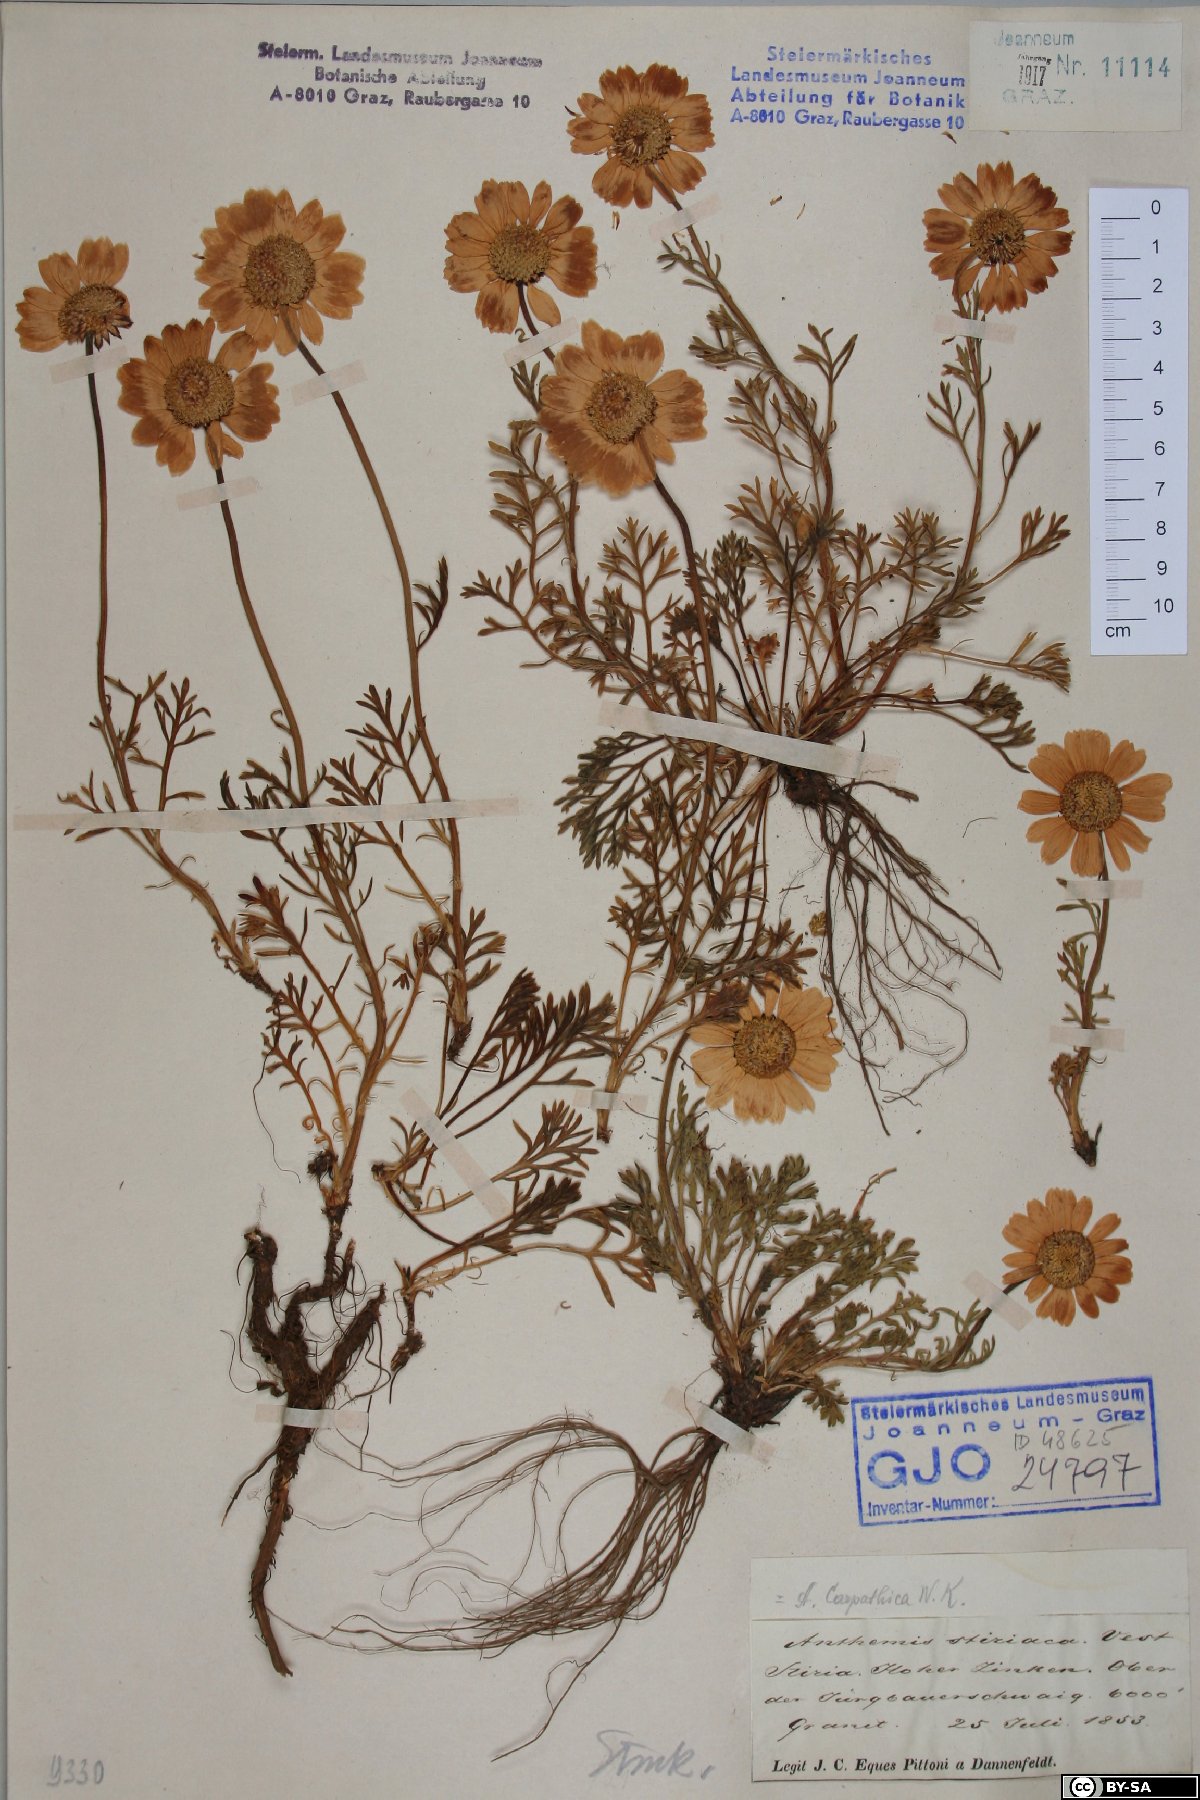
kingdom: Plantae
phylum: Tracheophyta
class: Magnoliopsida
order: Asterales
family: Asteraceae
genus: Anthemis
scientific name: Anthemis cretica
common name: Mountain dog-daisy
